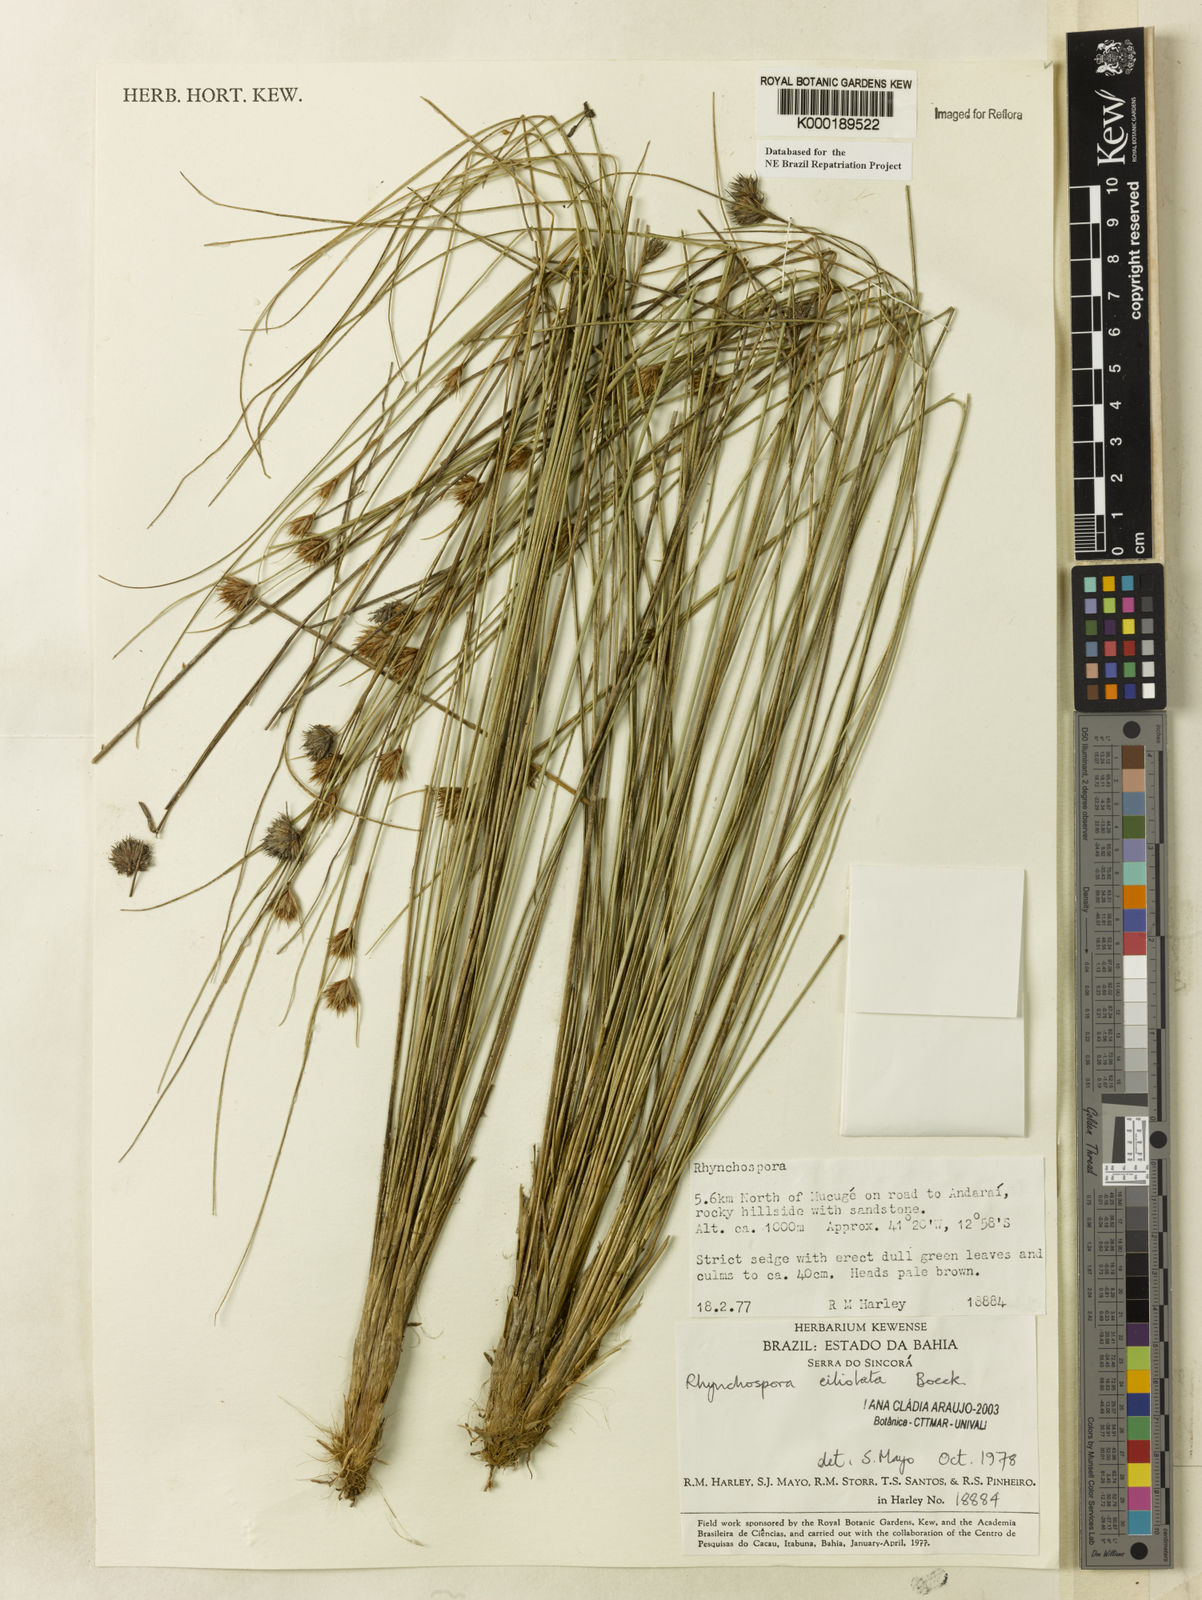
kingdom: Plantae
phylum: Tracheophyta
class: Liliopsida
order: Poales
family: Cyperaceae
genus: Rhynchospora
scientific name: Rhynchospora ciliolata
